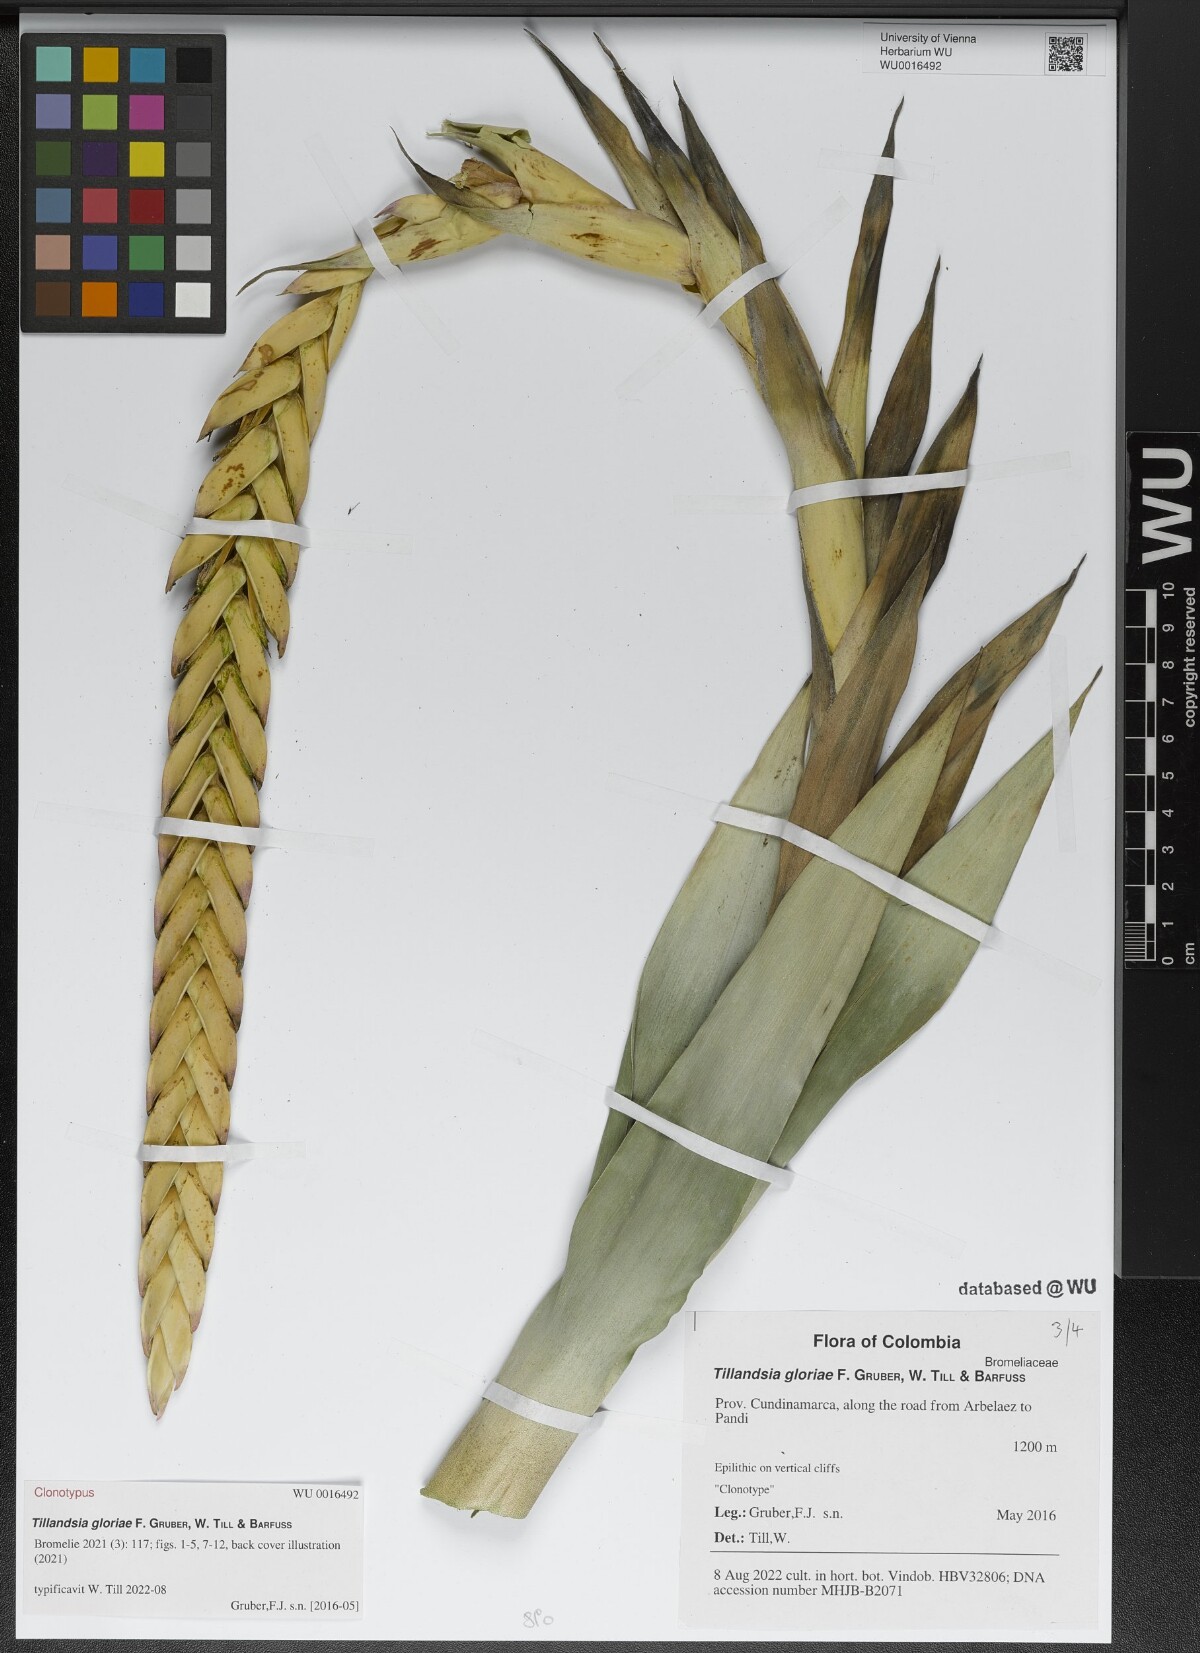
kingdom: Plantae
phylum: Tracheophyta
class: Liliopsida
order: Poales
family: Bromeliaceae
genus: Tillandsia
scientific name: Tillandsia
